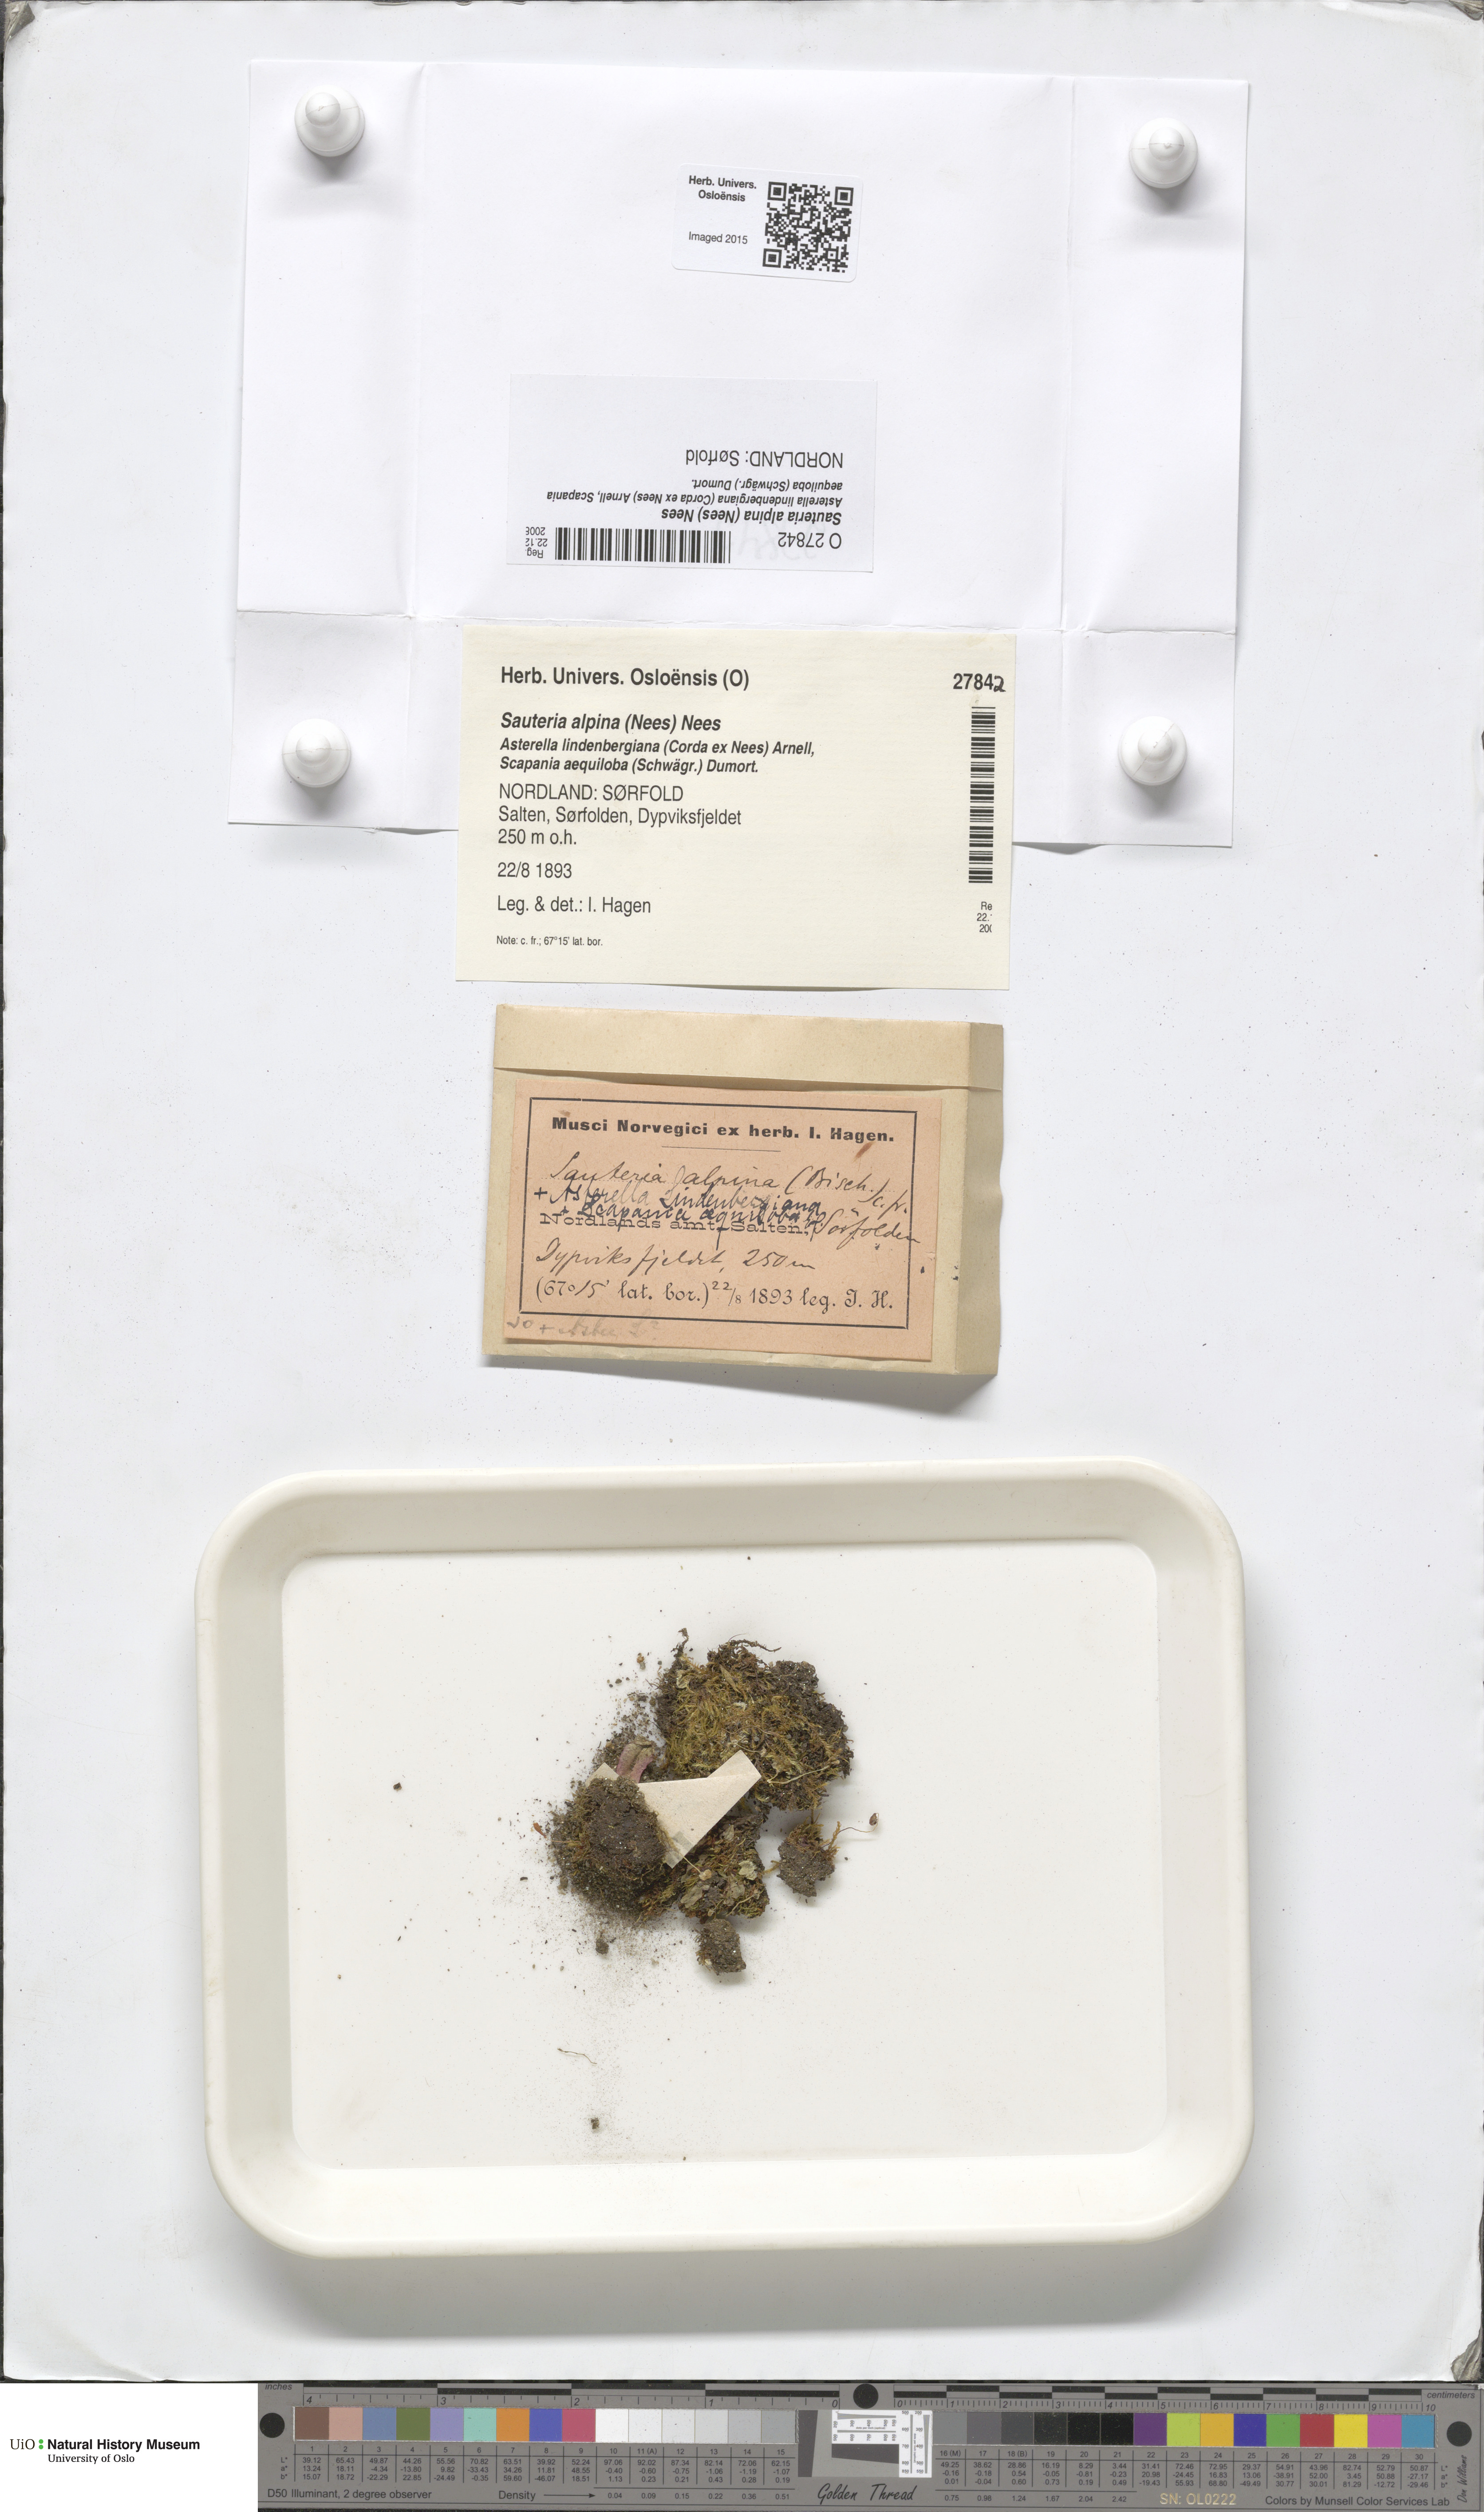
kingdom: Plantae
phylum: Marchantiophyta
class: Marchantiopsida
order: Marchantiales
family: Cleveaceae
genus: Sauteria
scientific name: Sauteria alpina
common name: Snow lungwort
